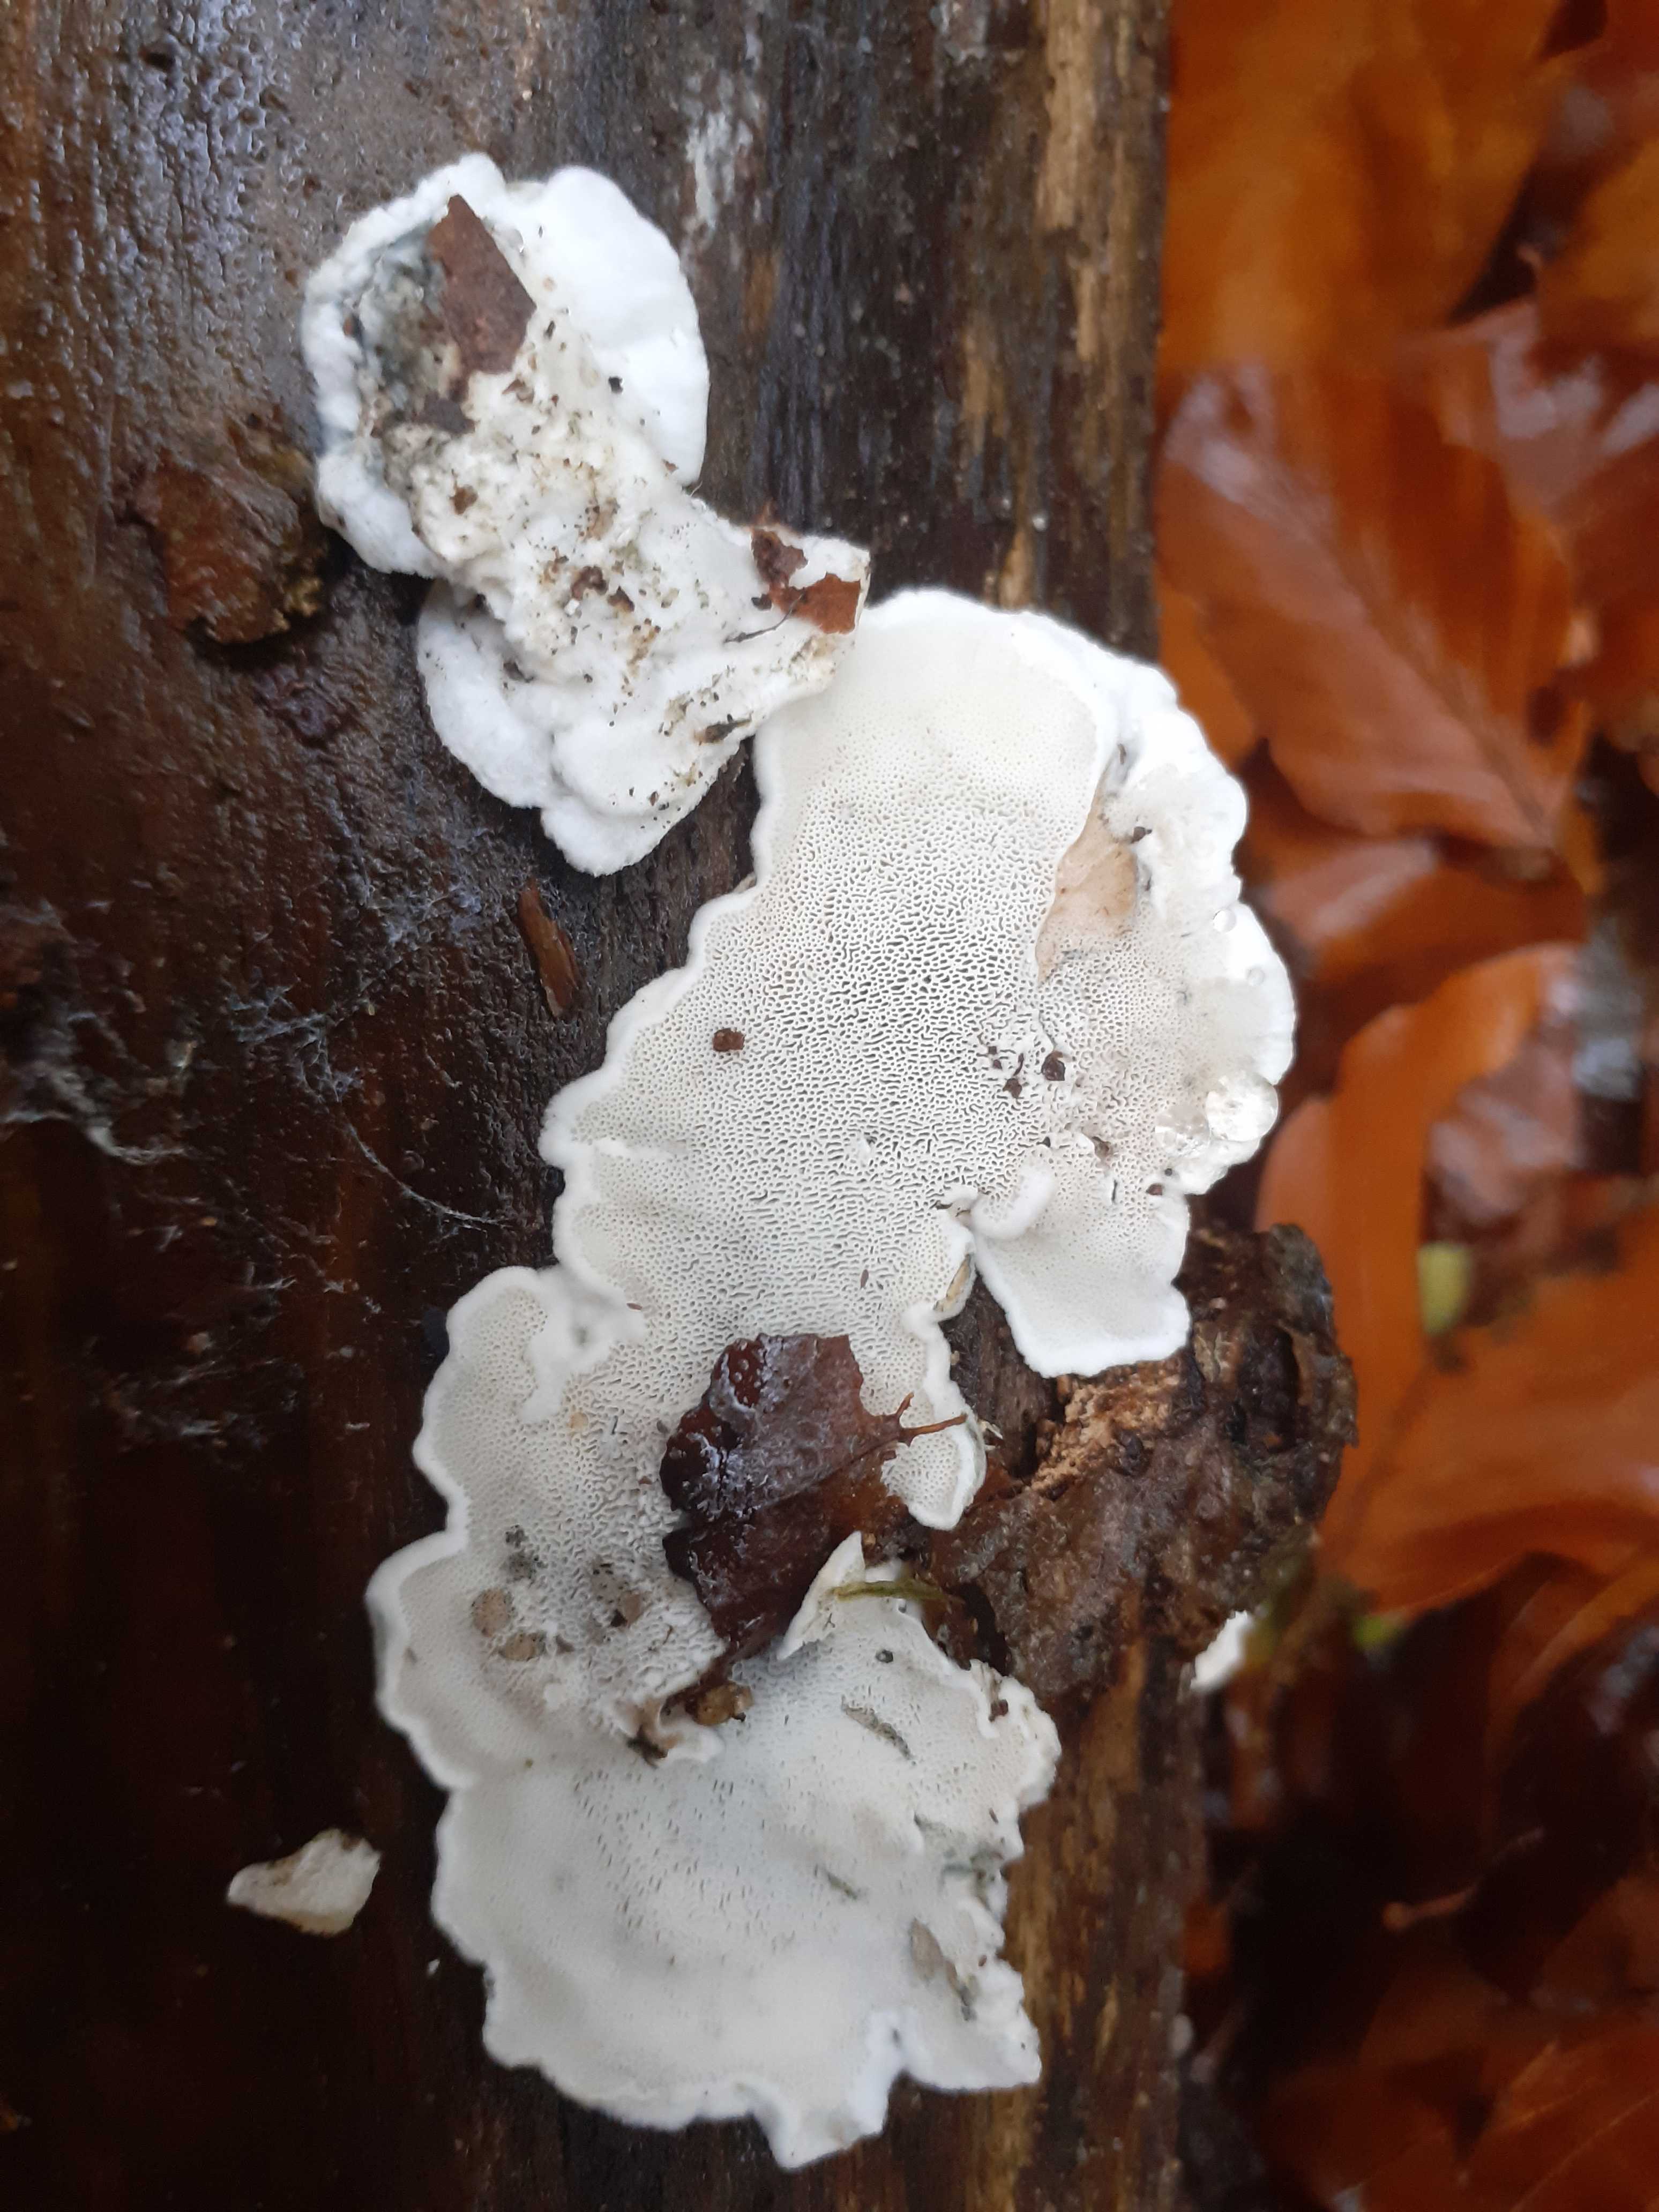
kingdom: Fungi
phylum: Basidiomycota
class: Agaricomycetes
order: Polyporales
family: Polyporaceae
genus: Cyanosporus
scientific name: Cyanosporus alni
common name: blegblå kødporesvamp
